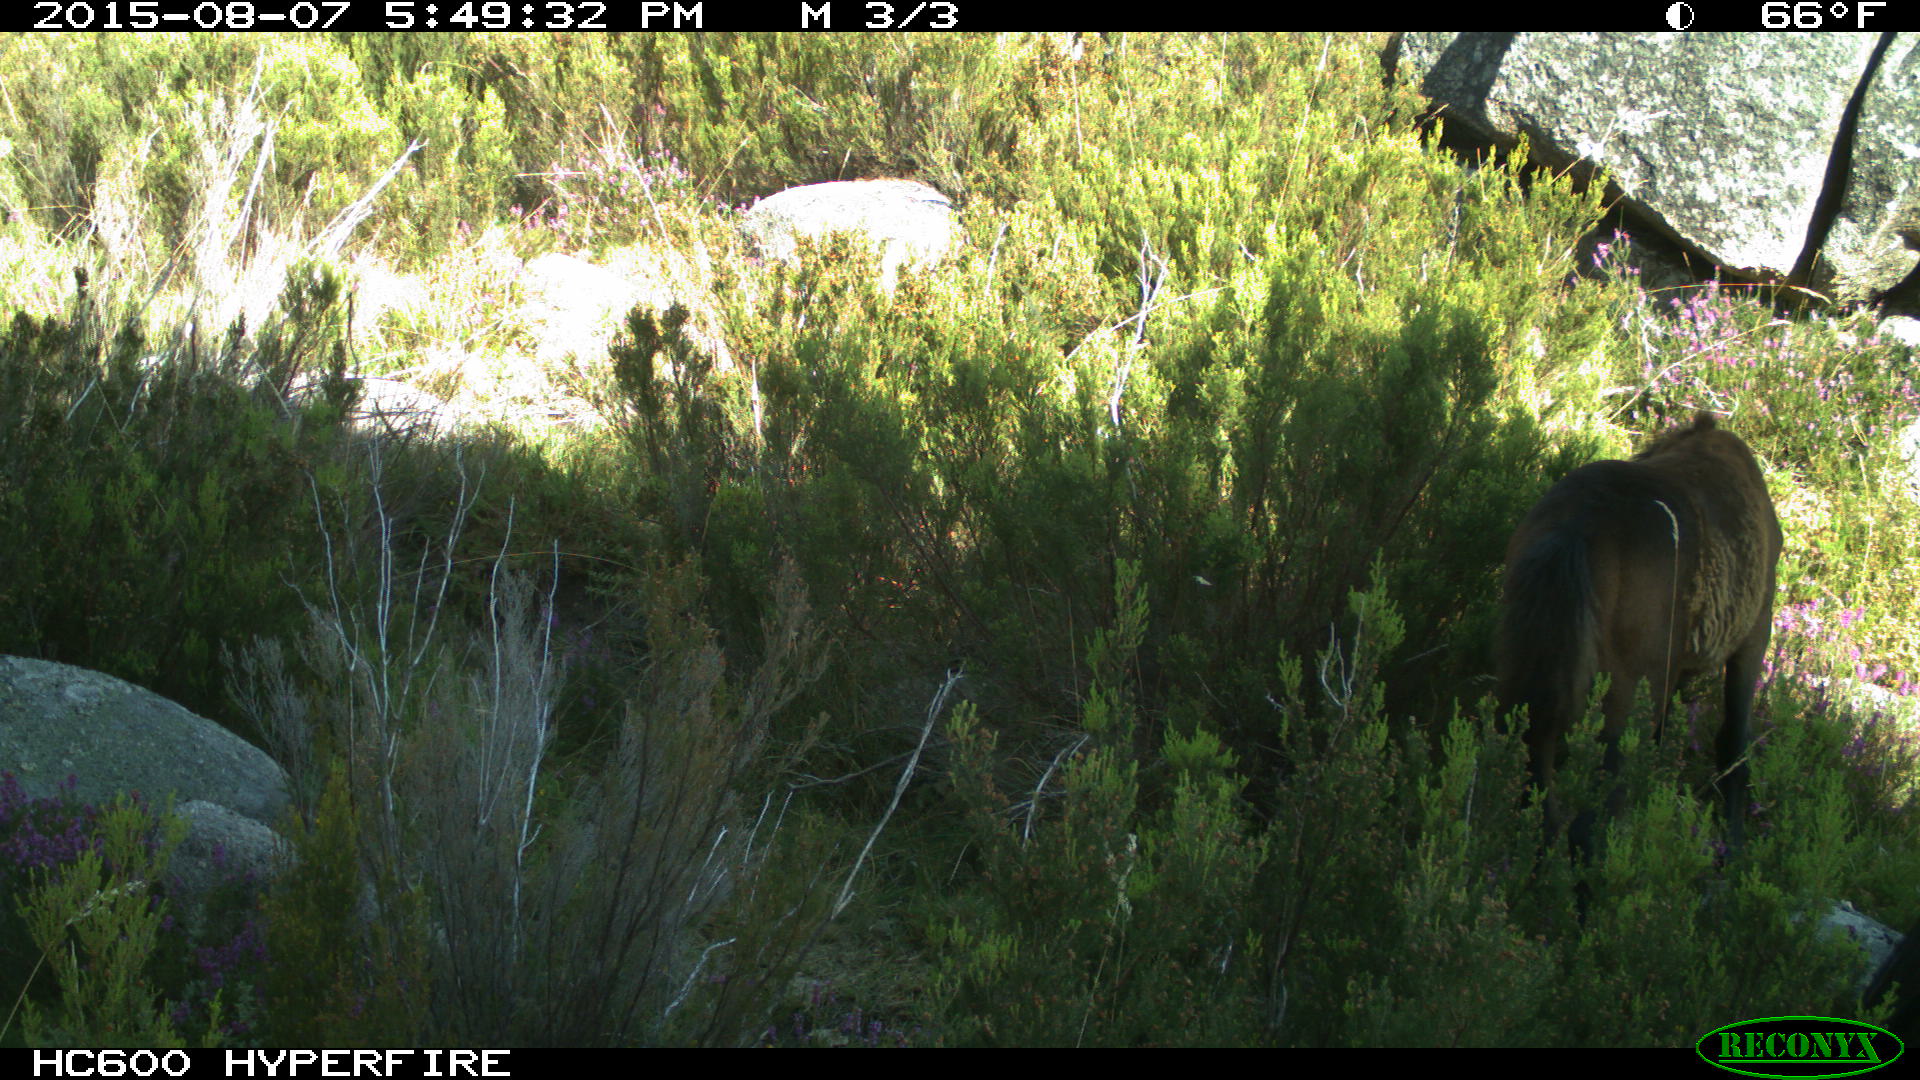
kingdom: Animalia
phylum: Chordata
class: Mammalia
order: Perissodactyla
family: Equidae
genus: Equus
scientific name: Equus caballus
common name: Horse
